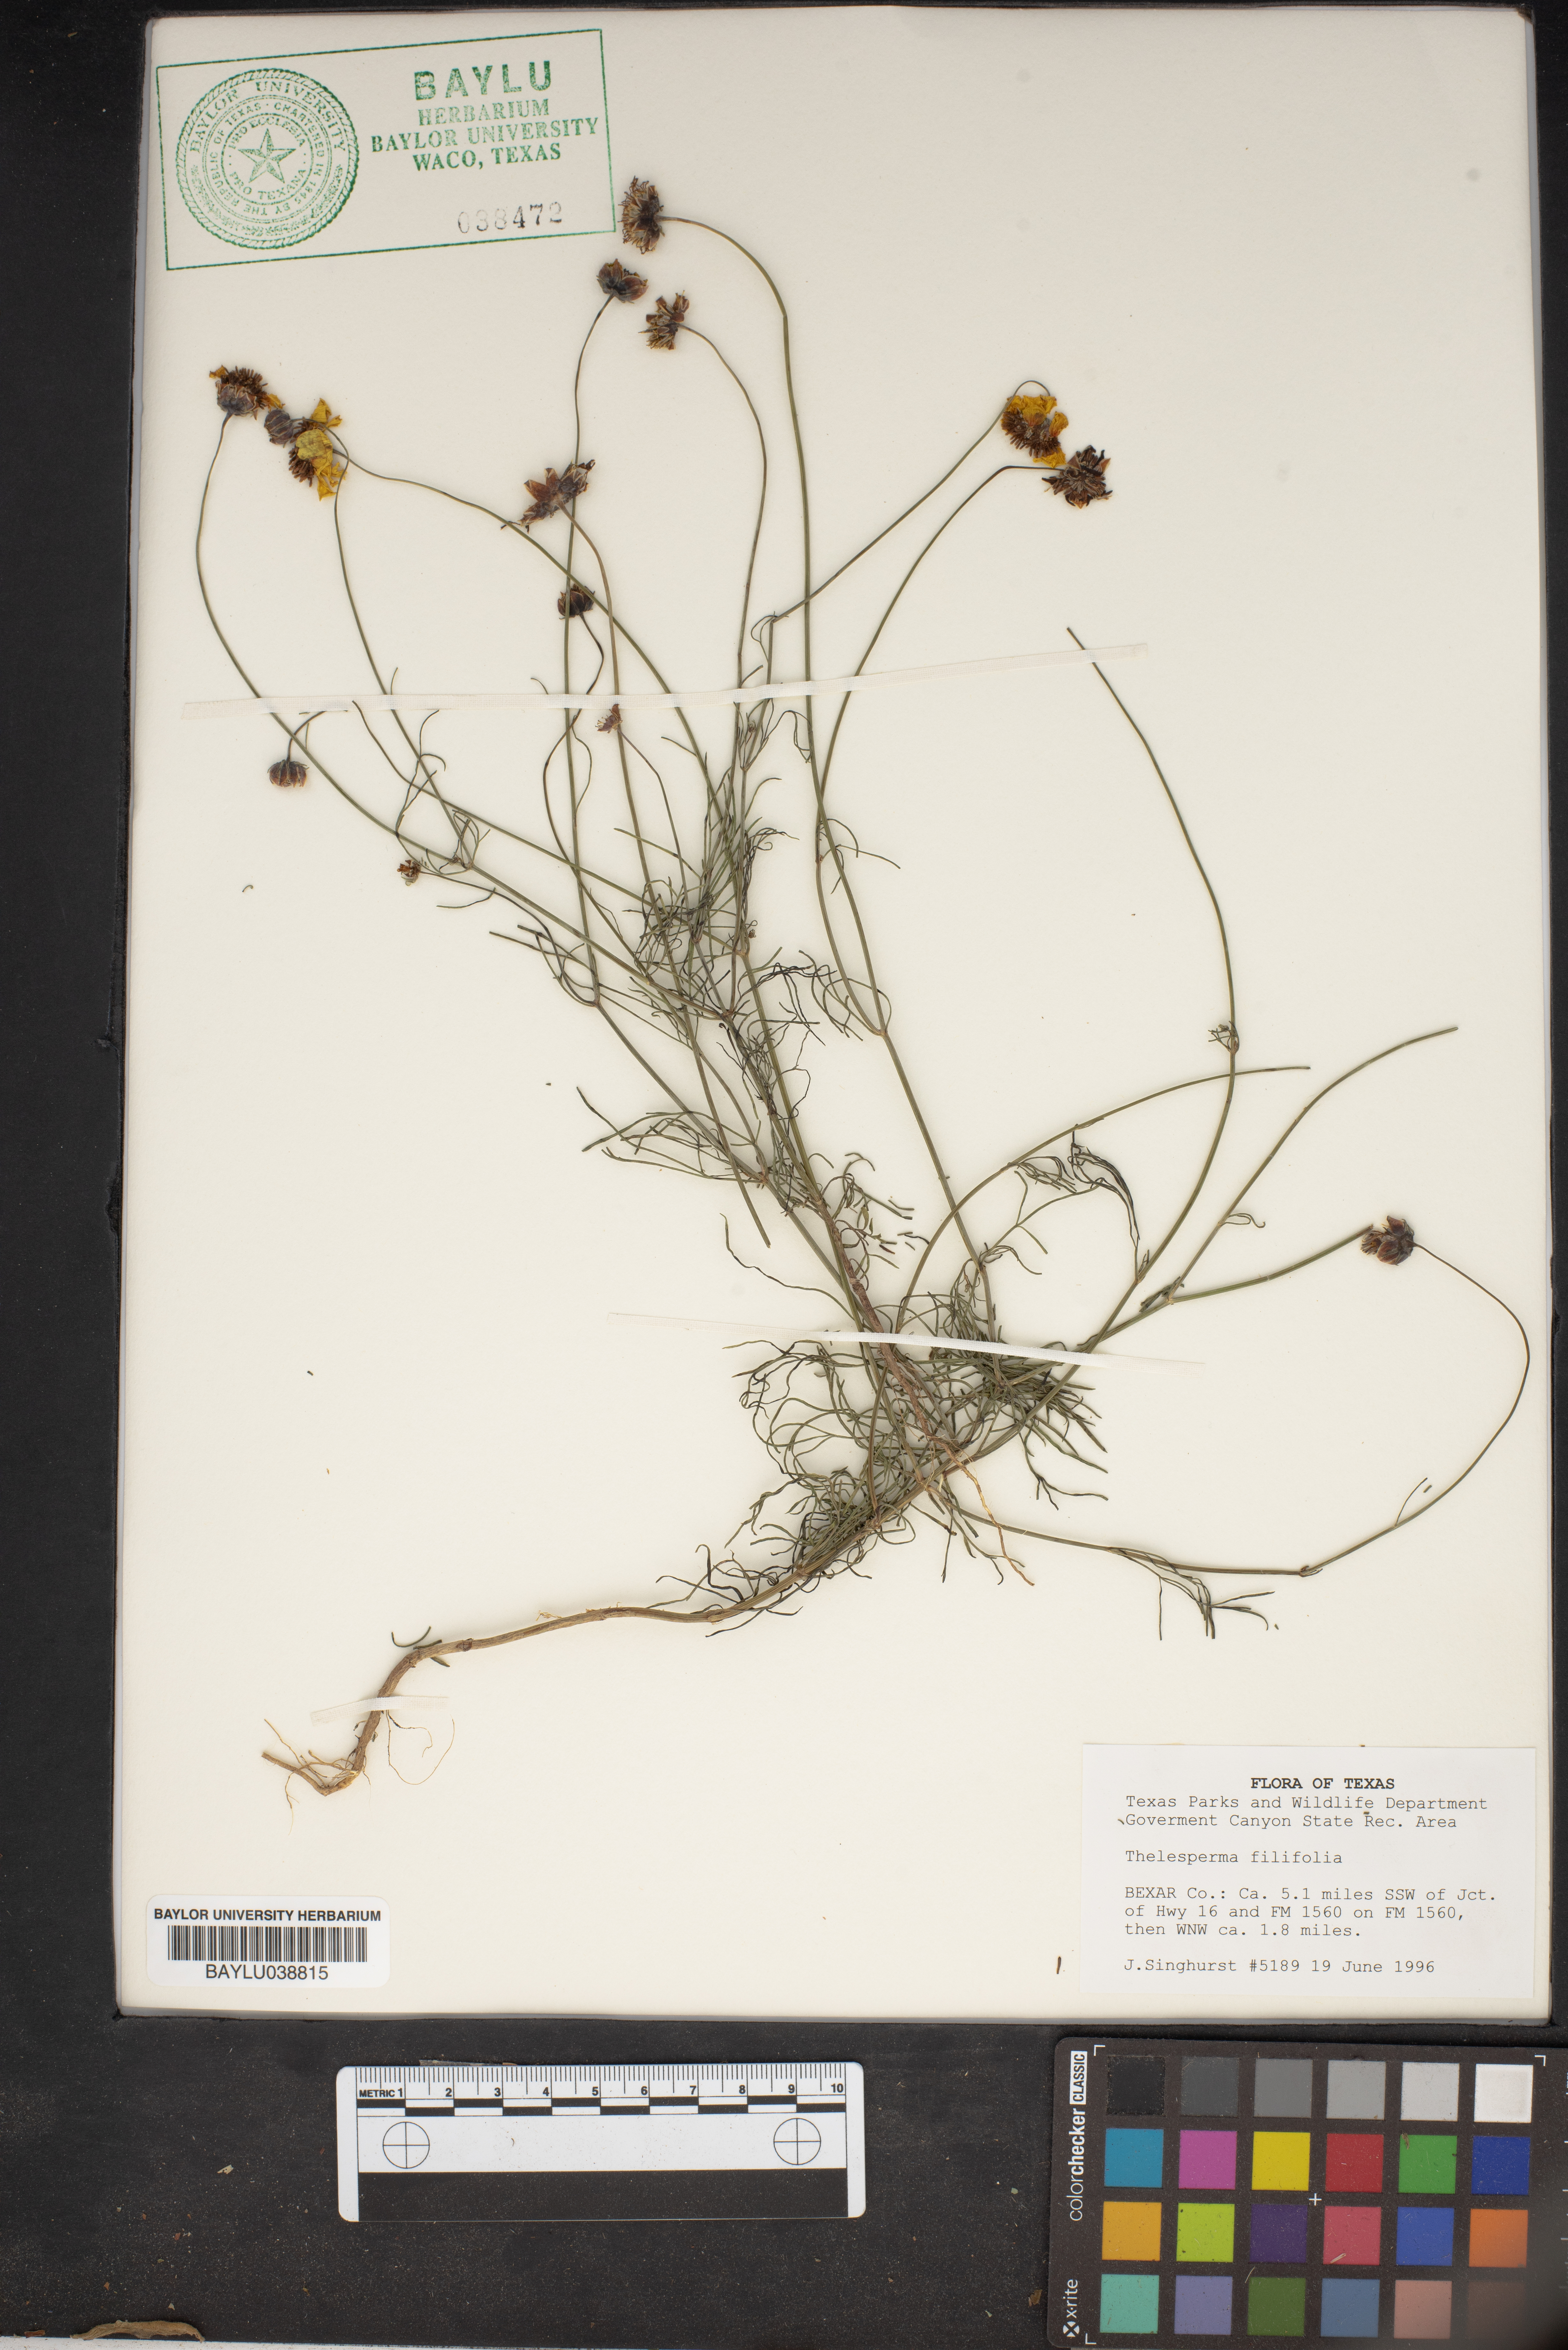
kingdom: Plantae
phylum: Tracheophyta
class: Magnoliopsida
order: Asterales
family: Asteraceae
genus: Thelesperma
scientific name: Thelesperma filifolium
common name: Stiff greenthread
